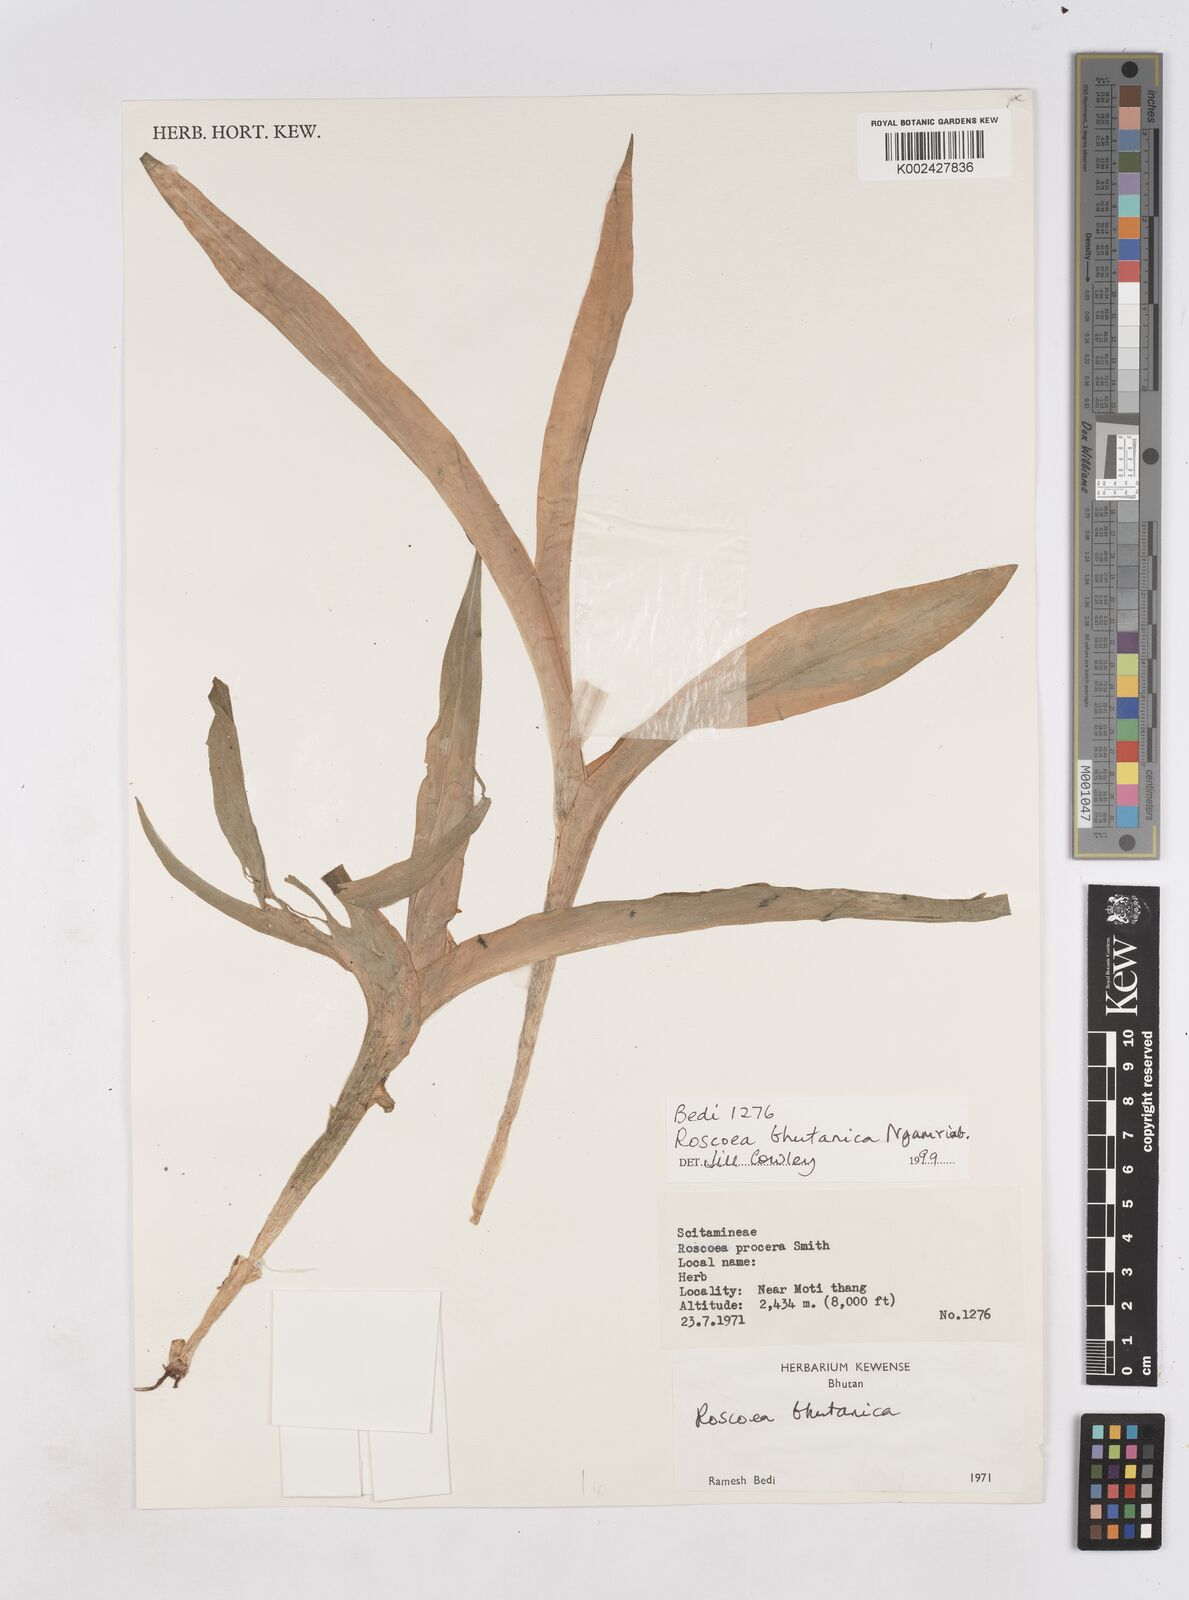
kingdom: Plantae
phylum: Tracheophyta
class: Liliopsida
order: Zingiberales
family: Zingiberaceae
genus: Roscoea
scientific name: Roscoea bhutanica
